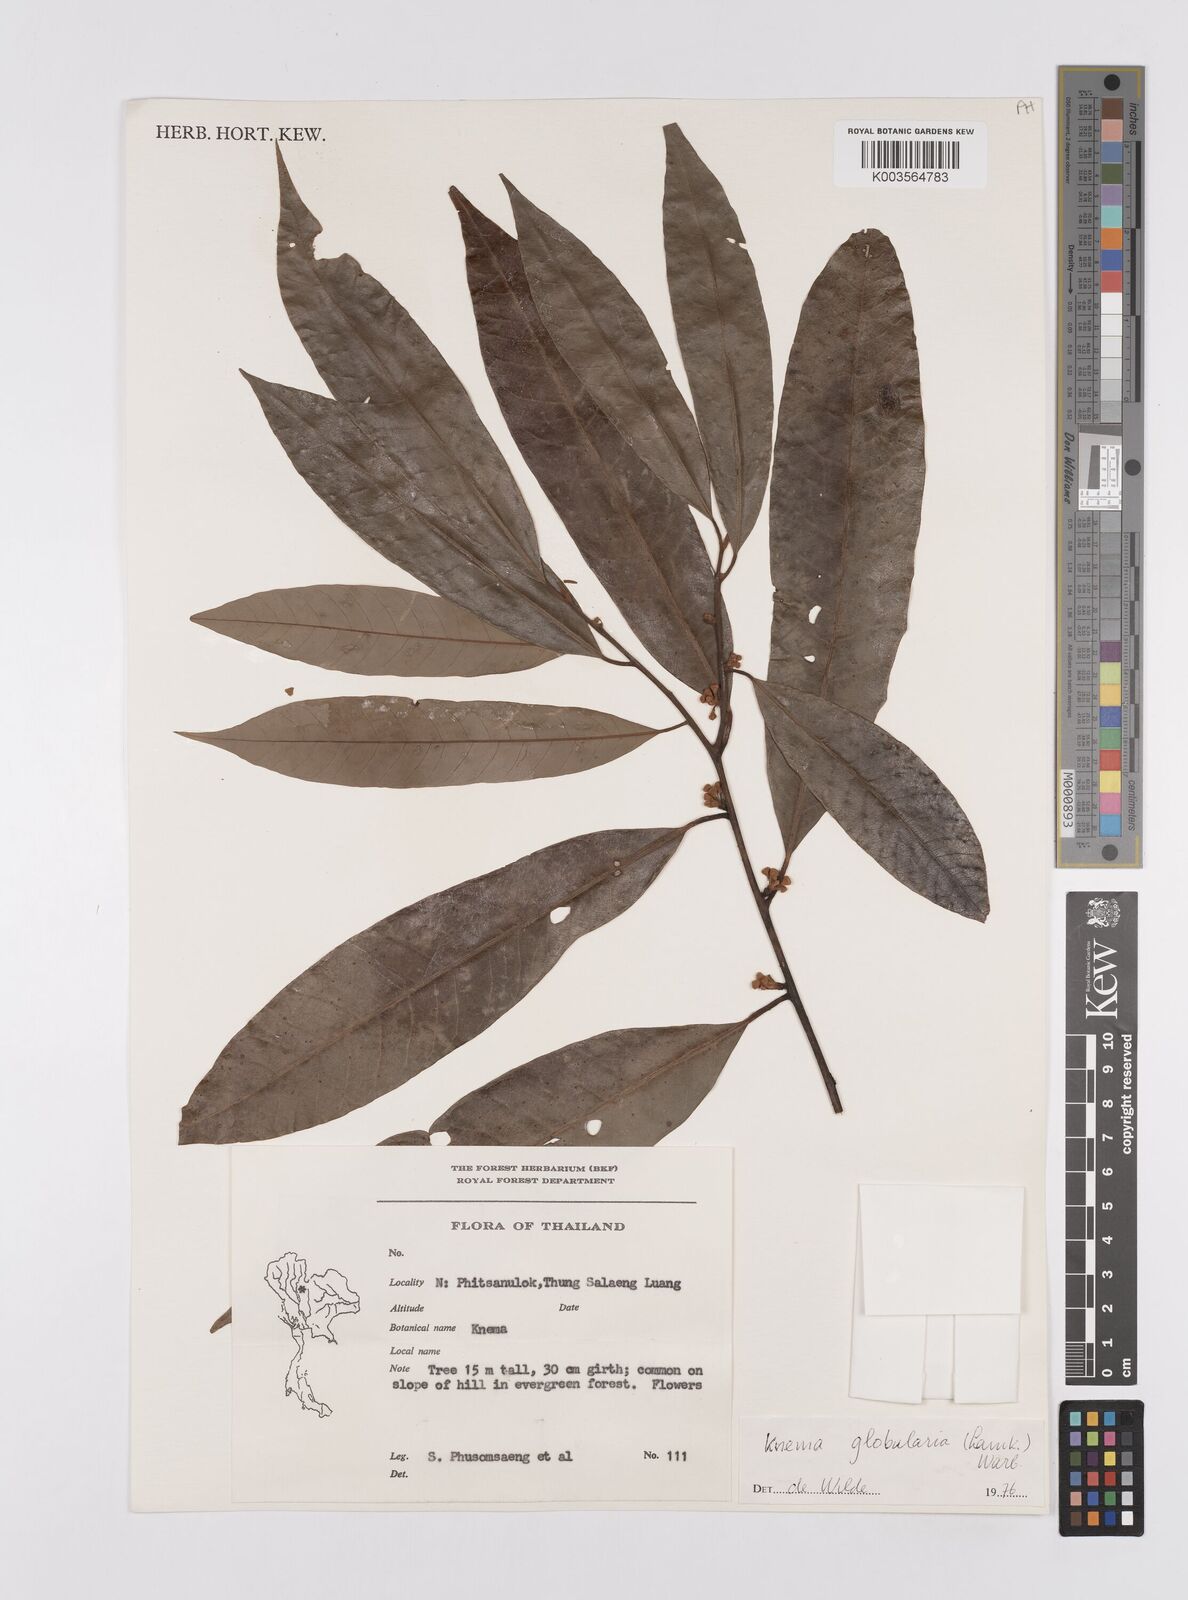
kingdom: Plantae
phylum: Tracheophyta
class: Magnoliopsida
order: Magnoliales
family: Myristicaceae
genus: Knema
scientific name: Knema globularia
